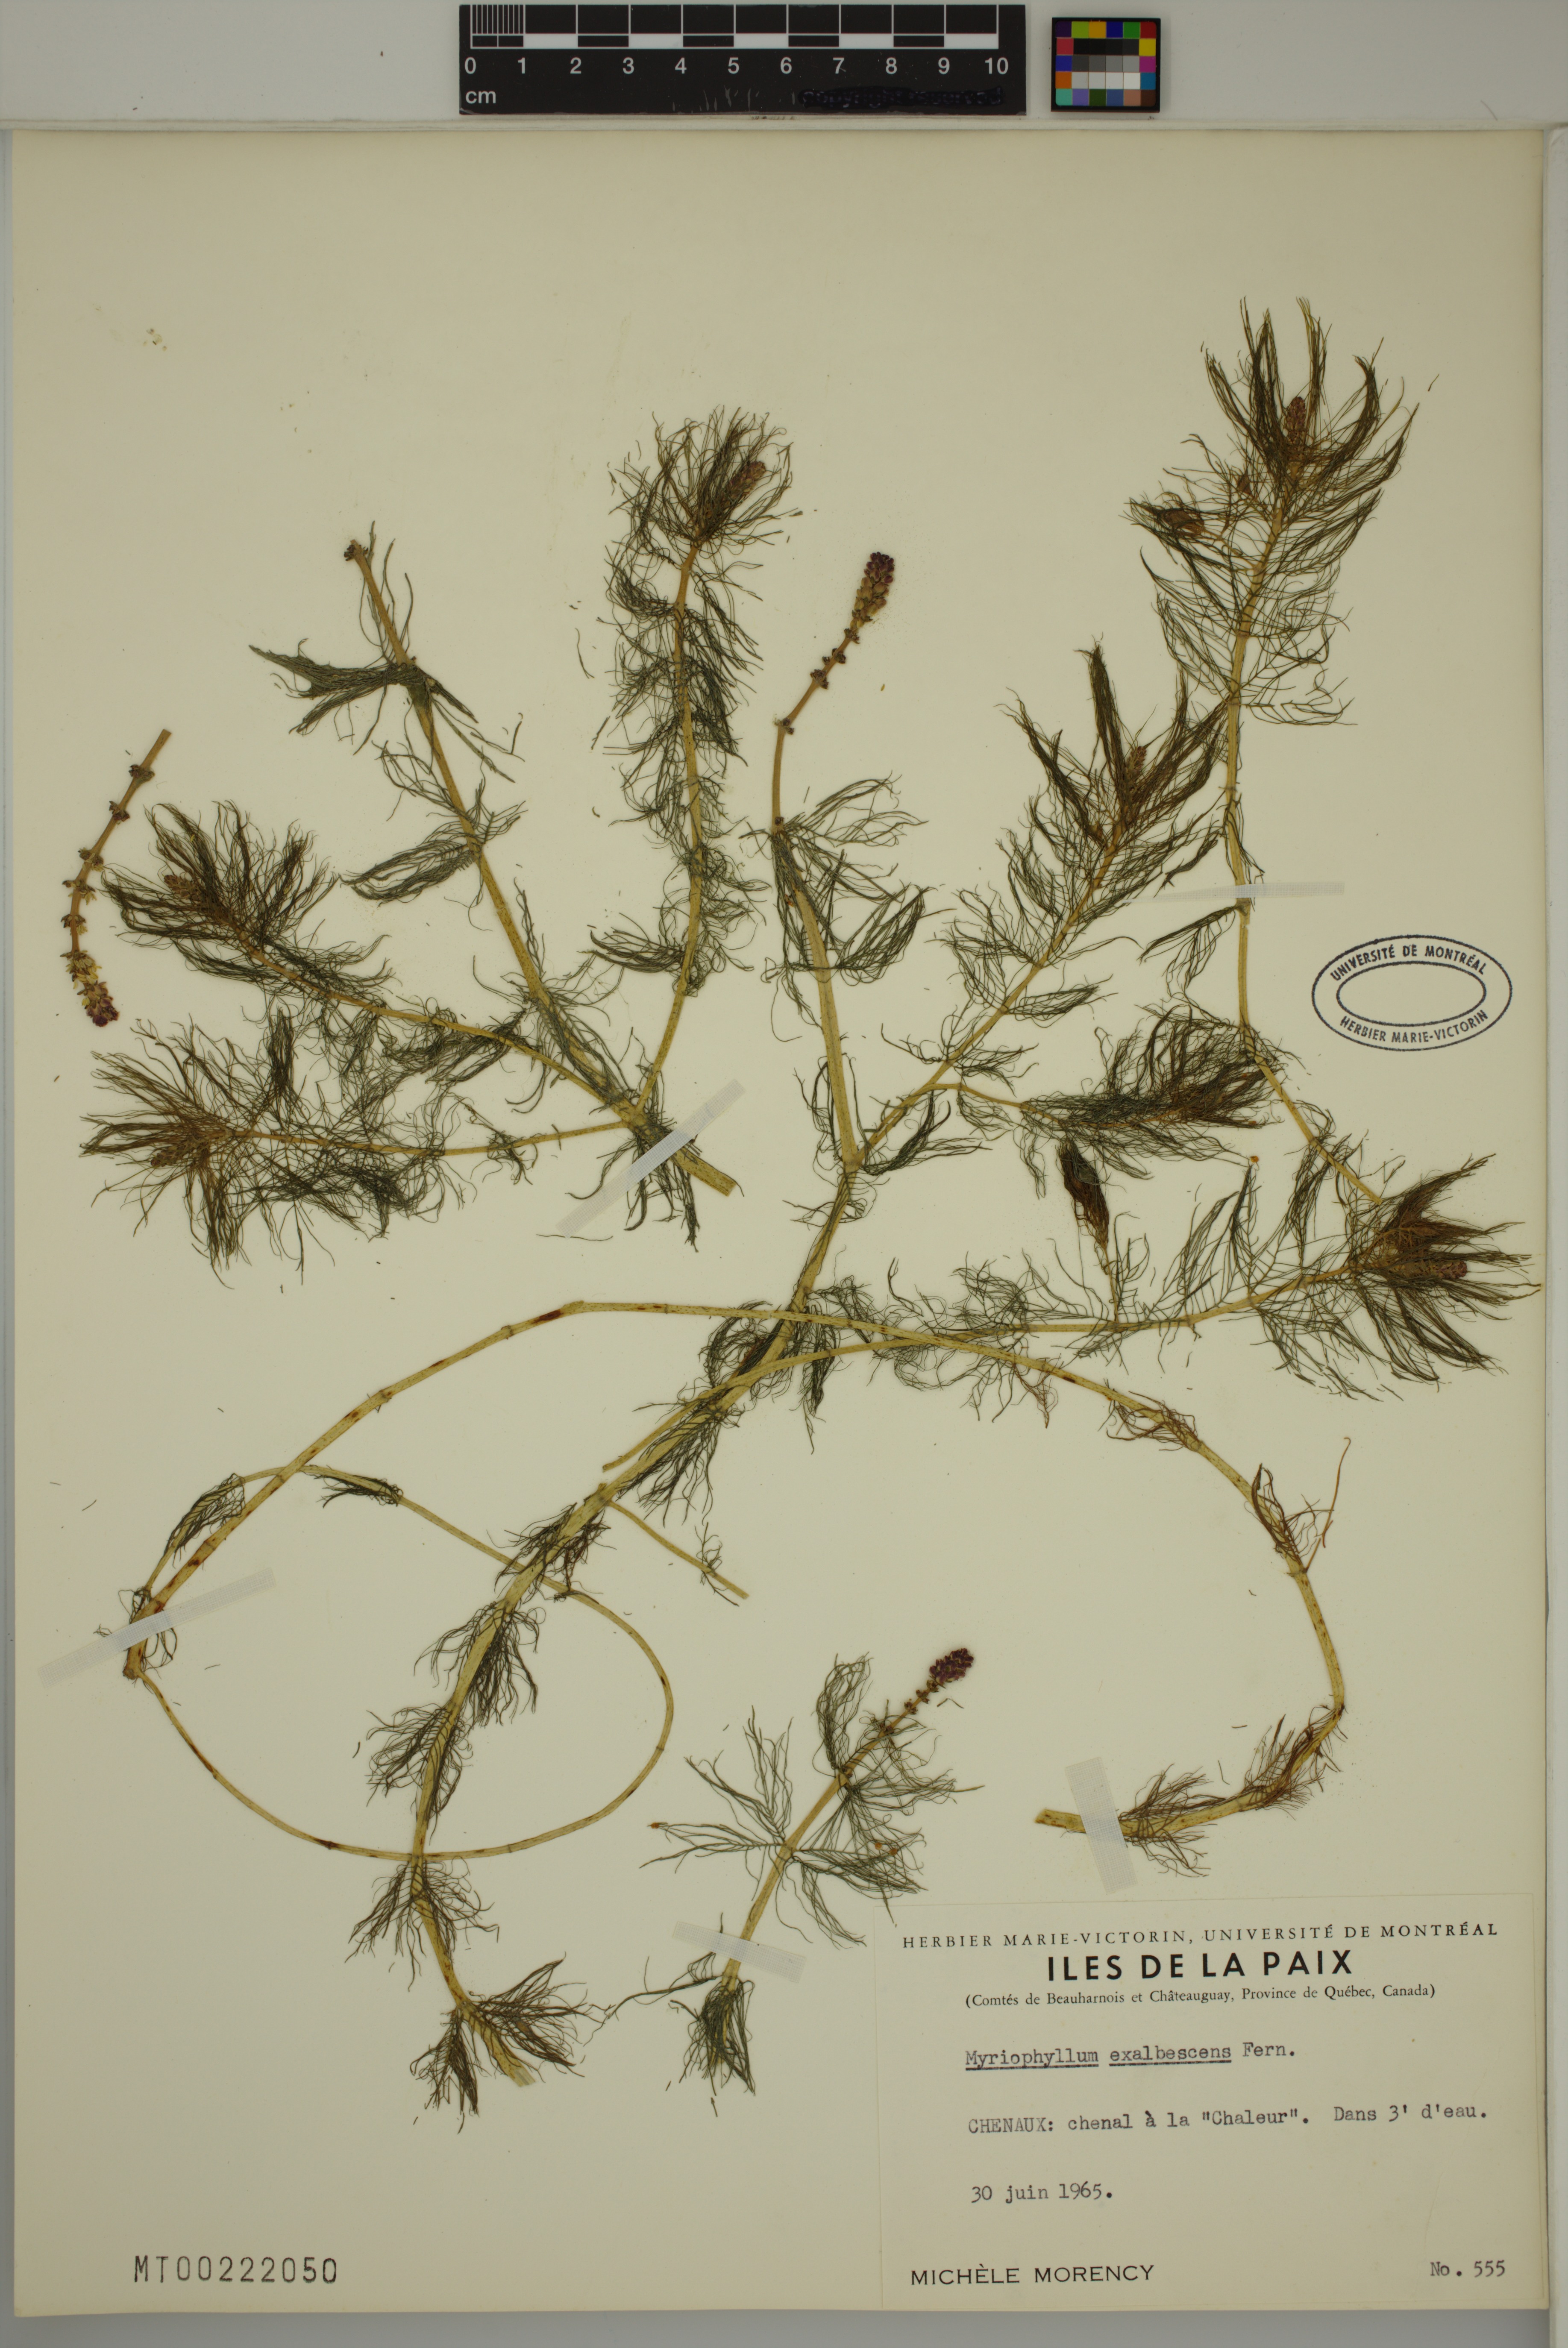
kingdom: Plantae
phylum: Tracheophyta
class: Magnoliopsida
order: Saxifragales
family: Haloragaceae
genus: Myriophyllum
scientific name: Myriophyllum sibiricum
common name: Siberian water-milfoil
